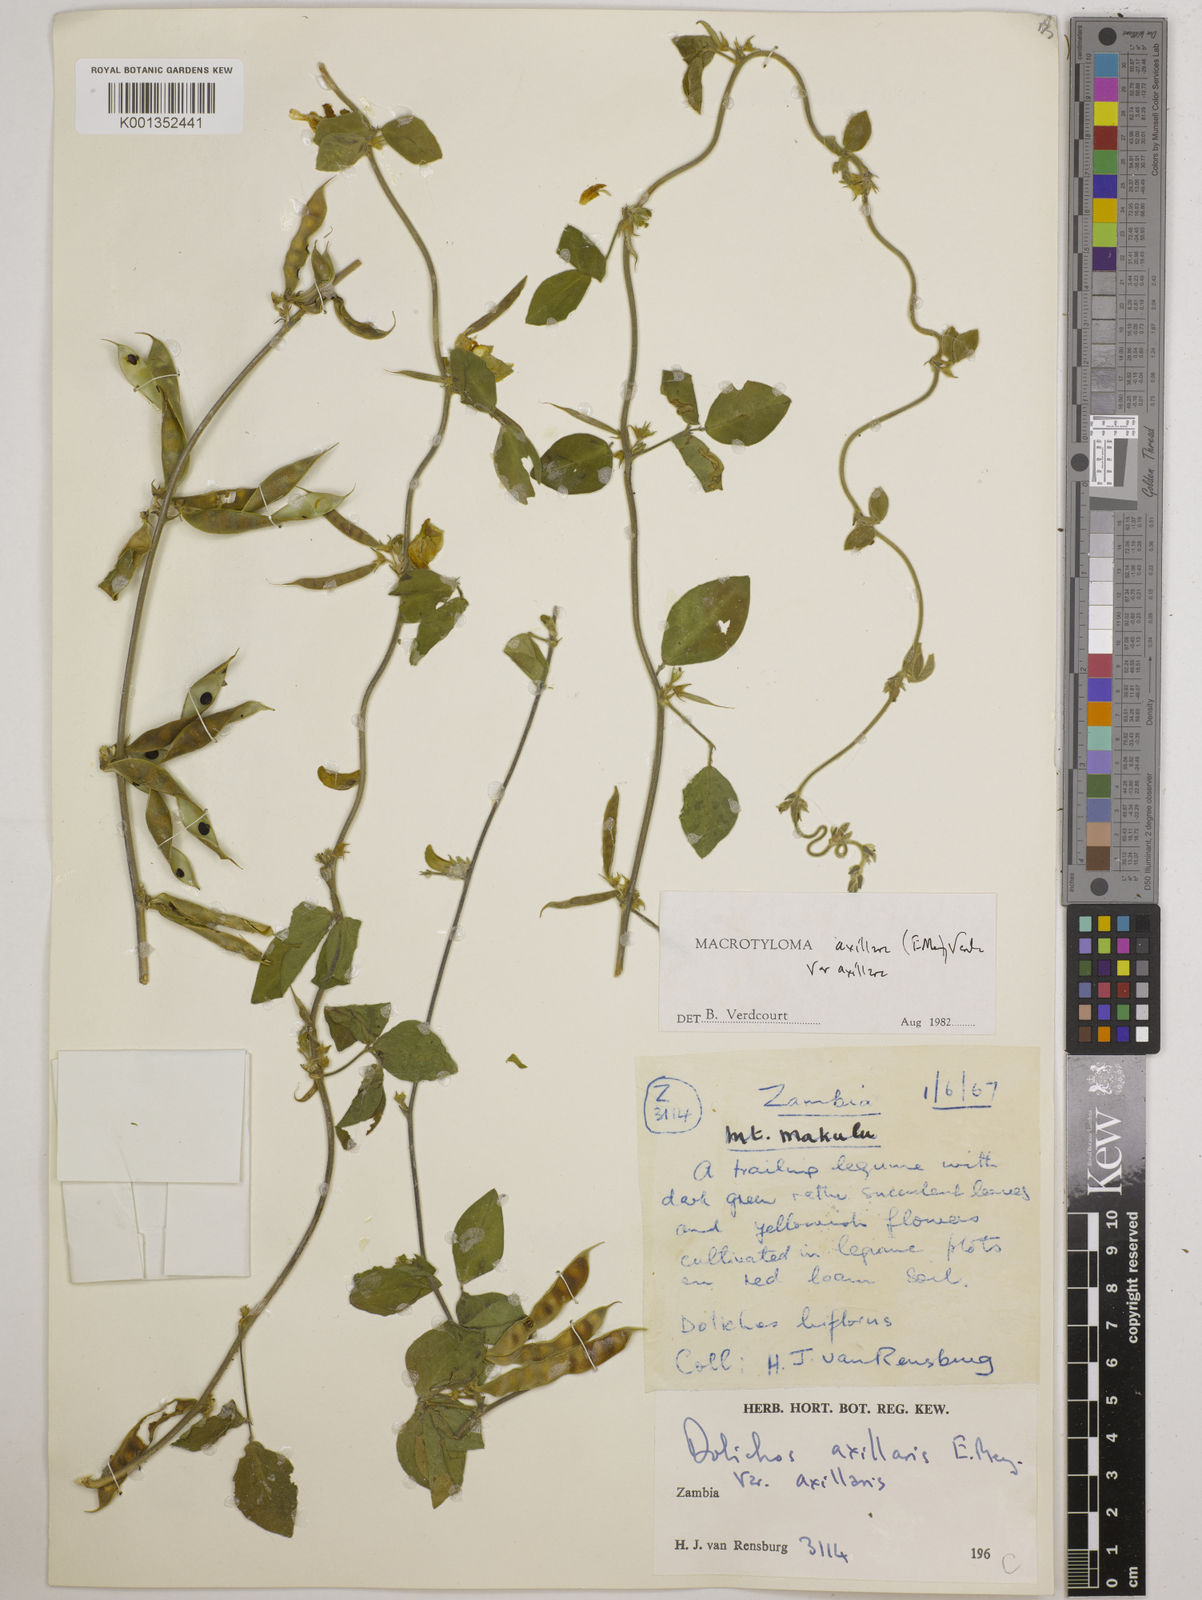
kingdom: Plantae
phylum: Tracheophyta
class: Magnoliopsida
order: Fabales
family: Fabaceae
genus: Macrotyloma
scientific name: Macrotyloma axillare
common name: Perennial horsegram
